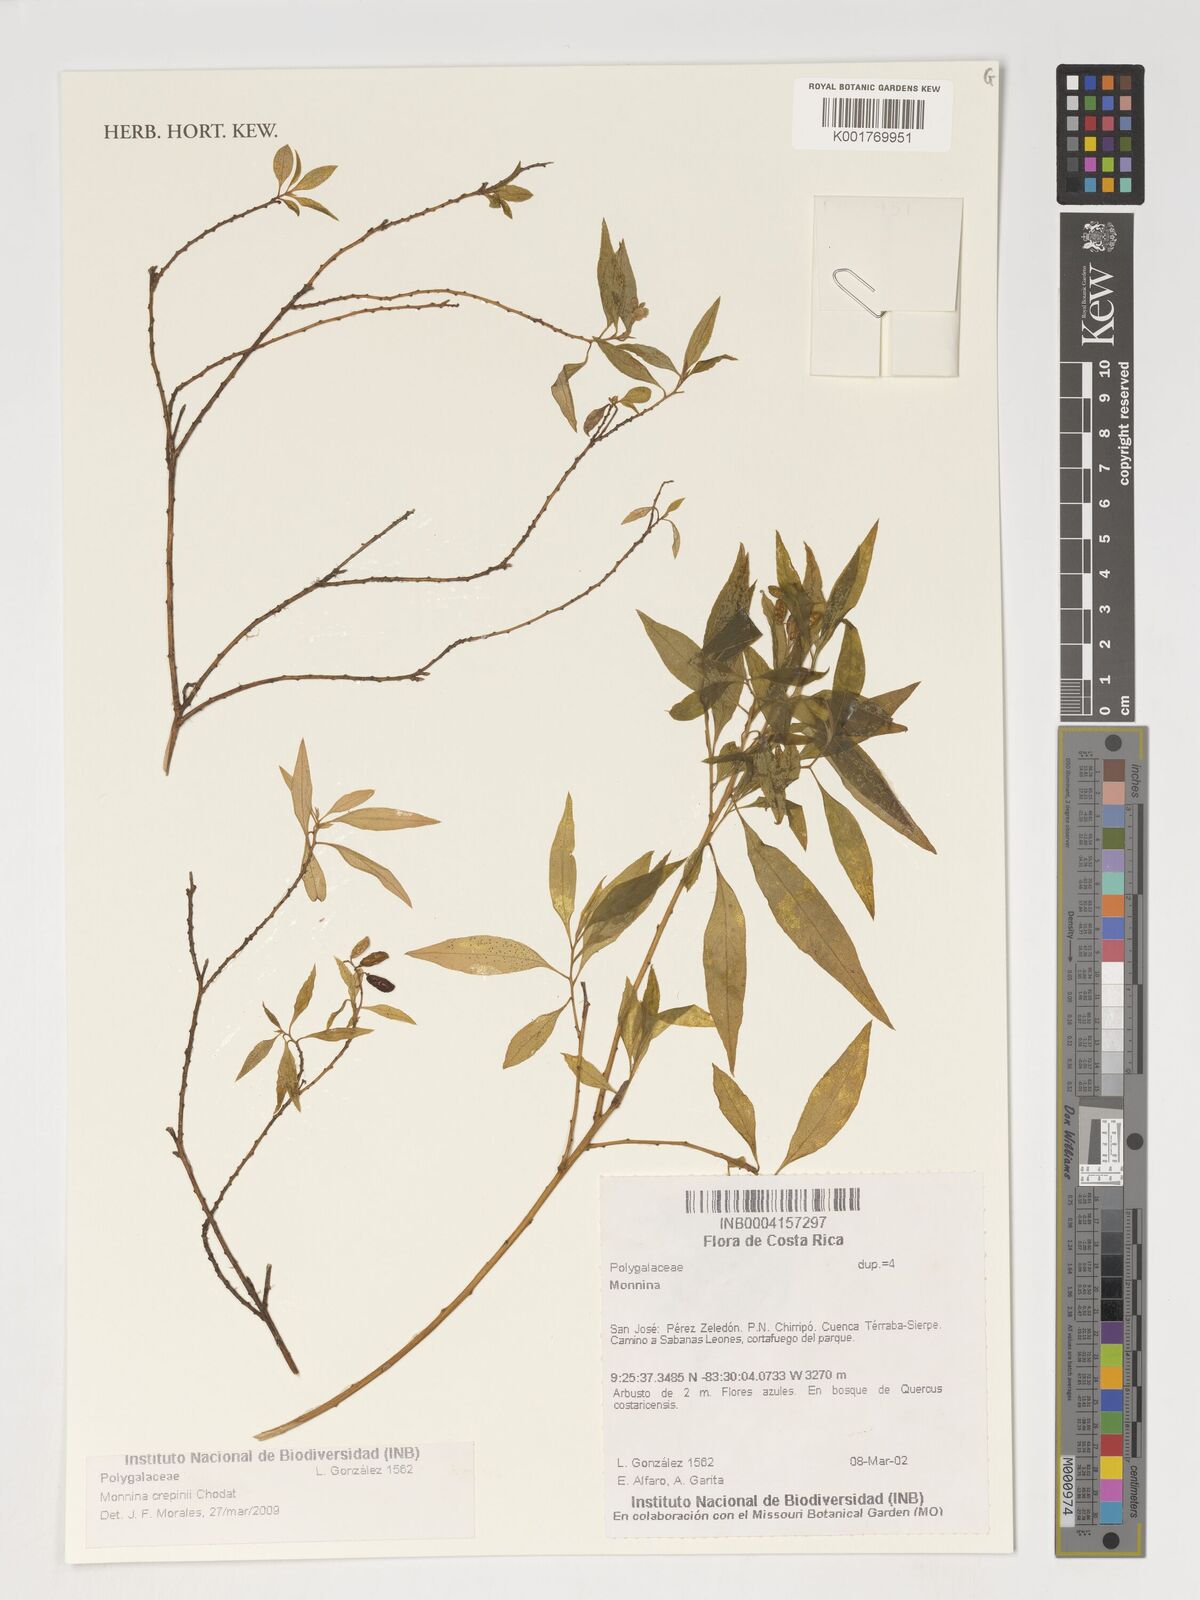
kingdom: Plantae
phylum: Tracheophyta
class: Magnoliopsida
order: Fabales
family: Polygalaceae
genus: Monnina
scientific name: Monnina crepinii
